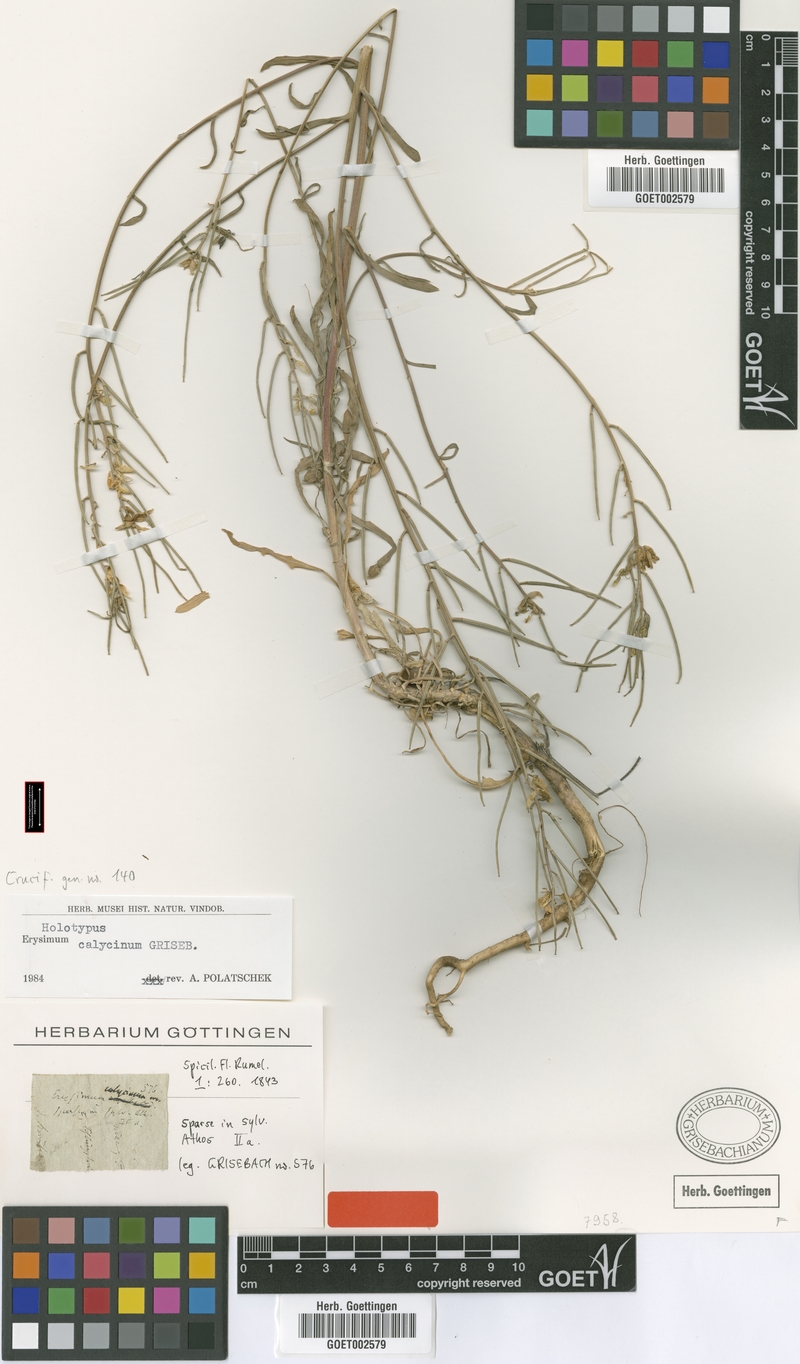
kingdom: Plantae
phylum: Tracheophyta
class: Magnoliopsida
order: Brassicales
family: Brassicaceae
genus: Erysimum
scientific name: Erysimum calycinum
